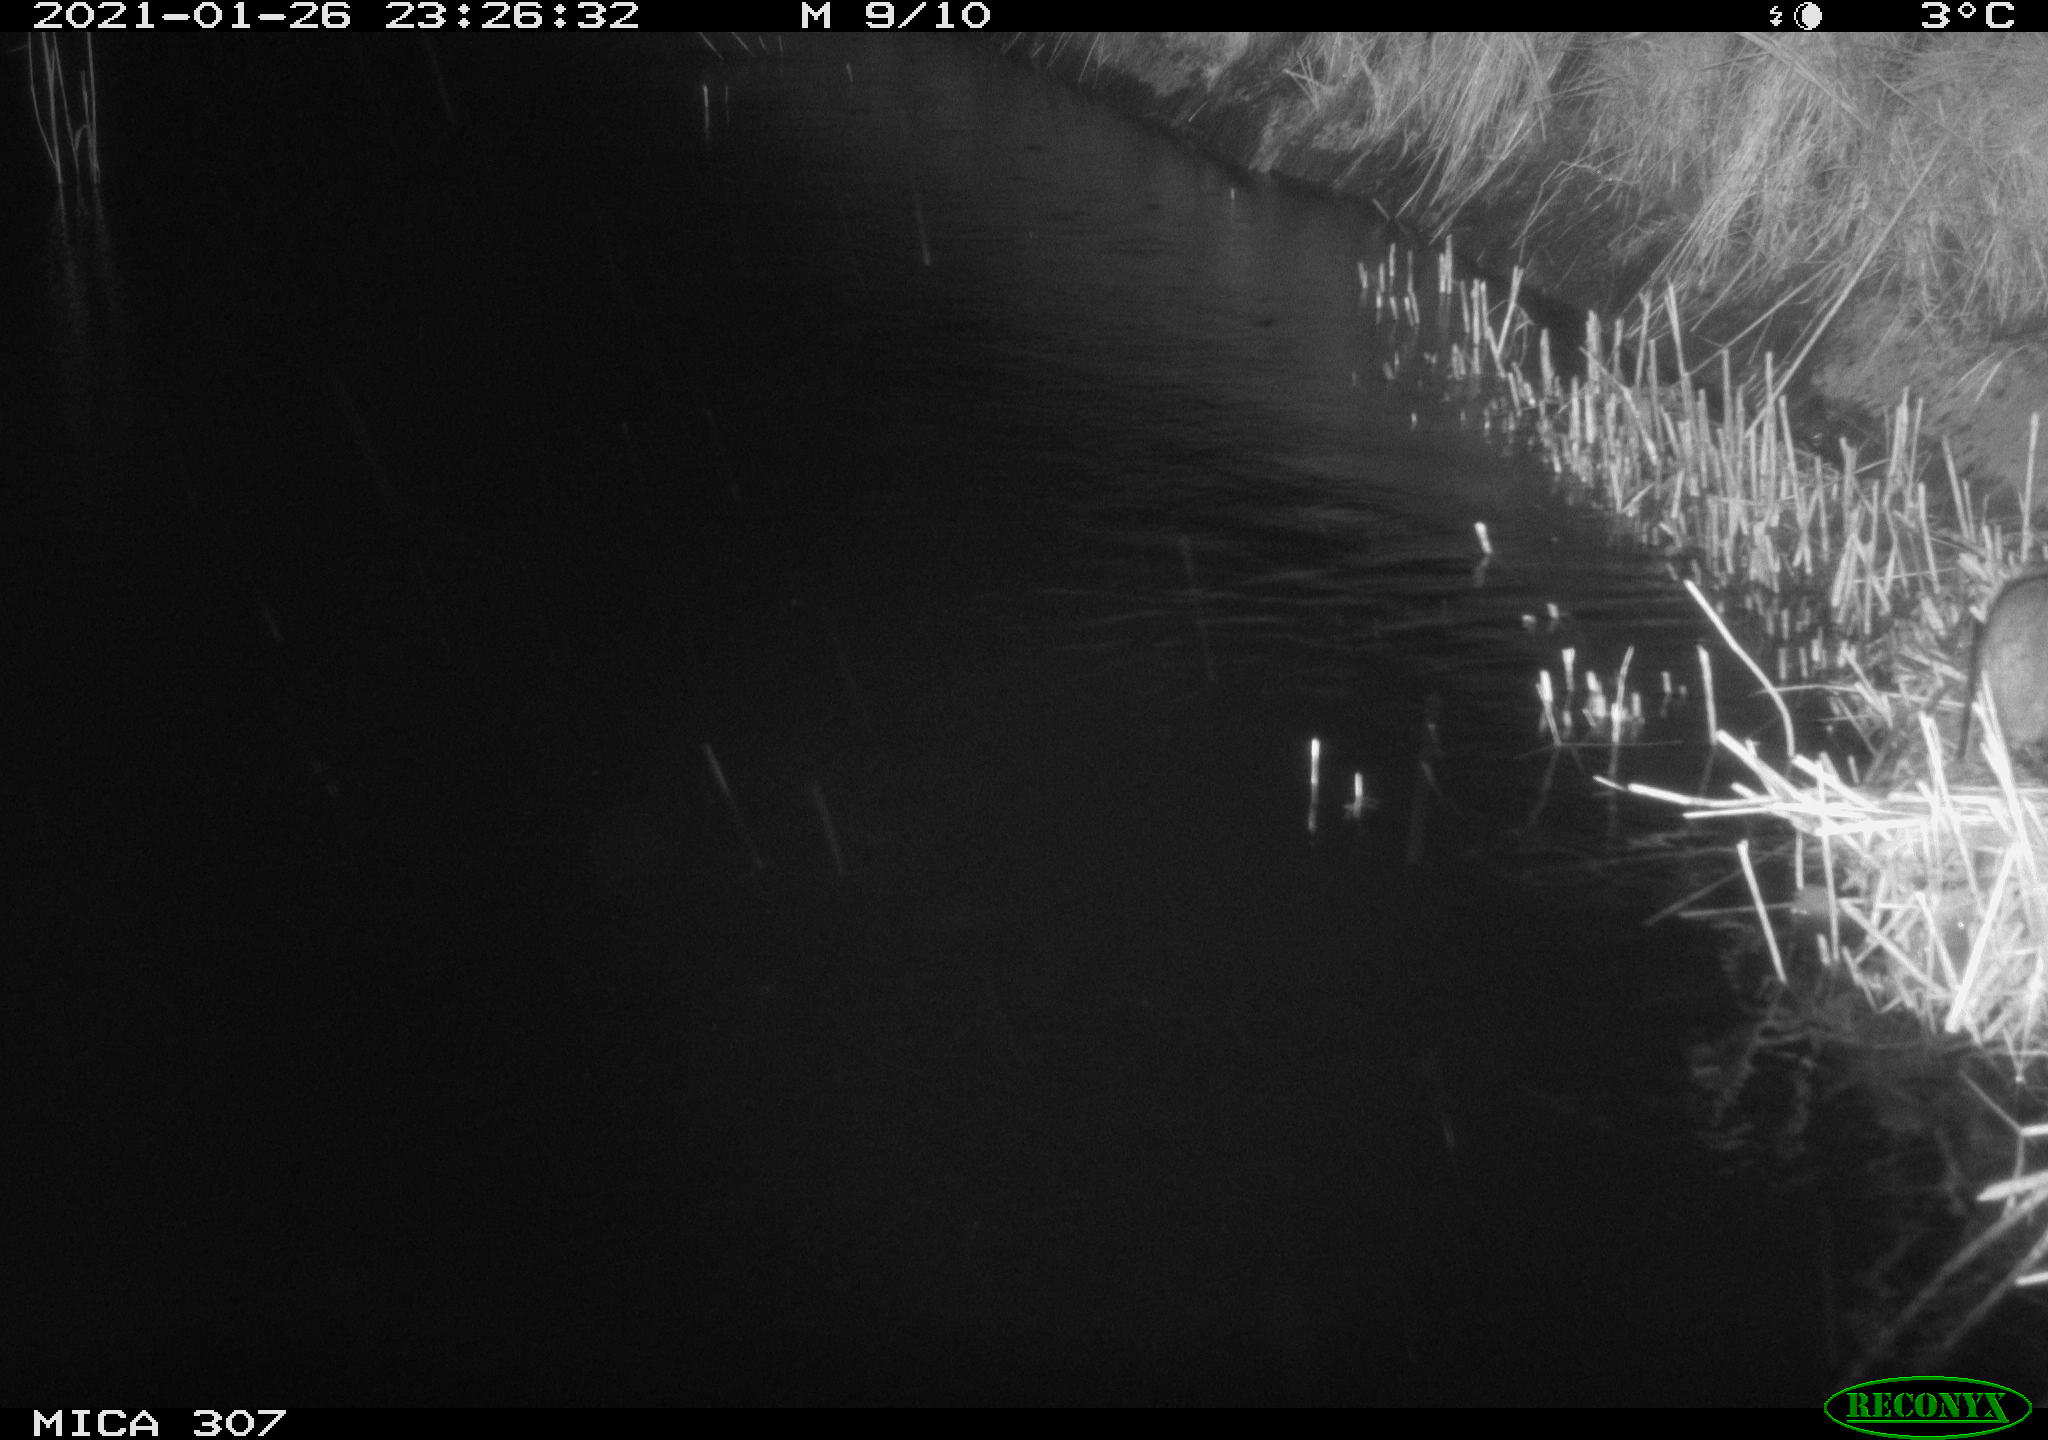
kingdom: Animalia
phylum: Chordata
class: Mammalia
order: Rodentia
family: Muridae
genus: Rattus
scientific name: Rattus norvegicus
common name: Brown rat
